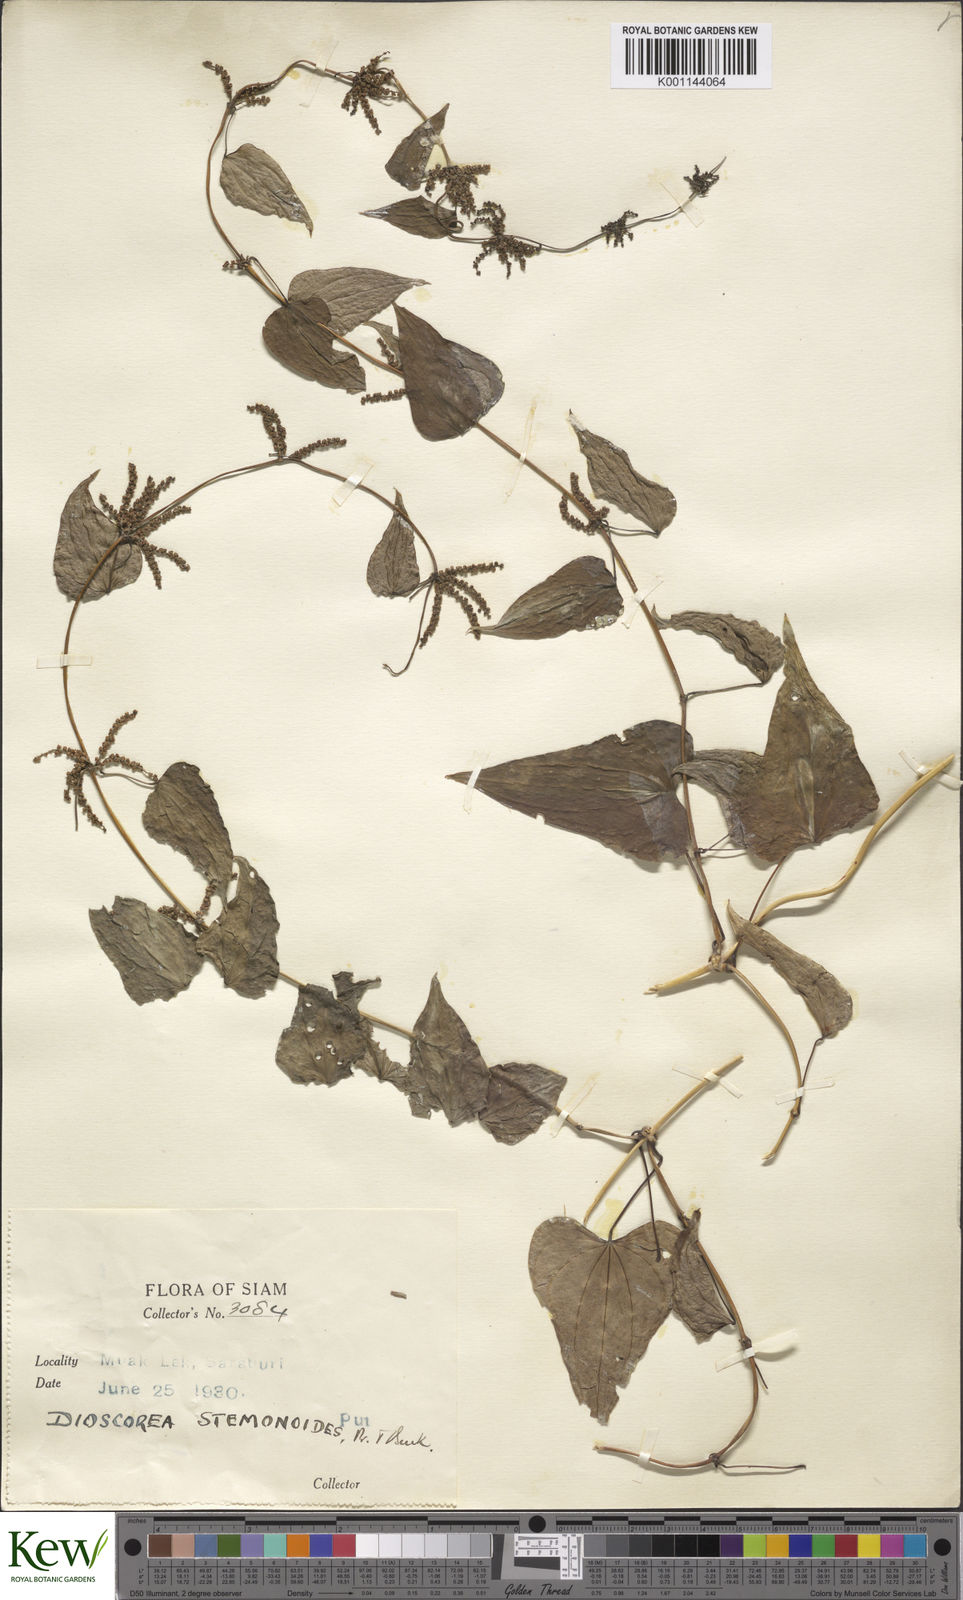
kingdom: Plantae
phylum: Tracheophyta
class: Liliopsida
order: Dioscoreales
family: Dioscoreaceae
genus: Dioscorea
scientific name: Dioscorea stemonoides
